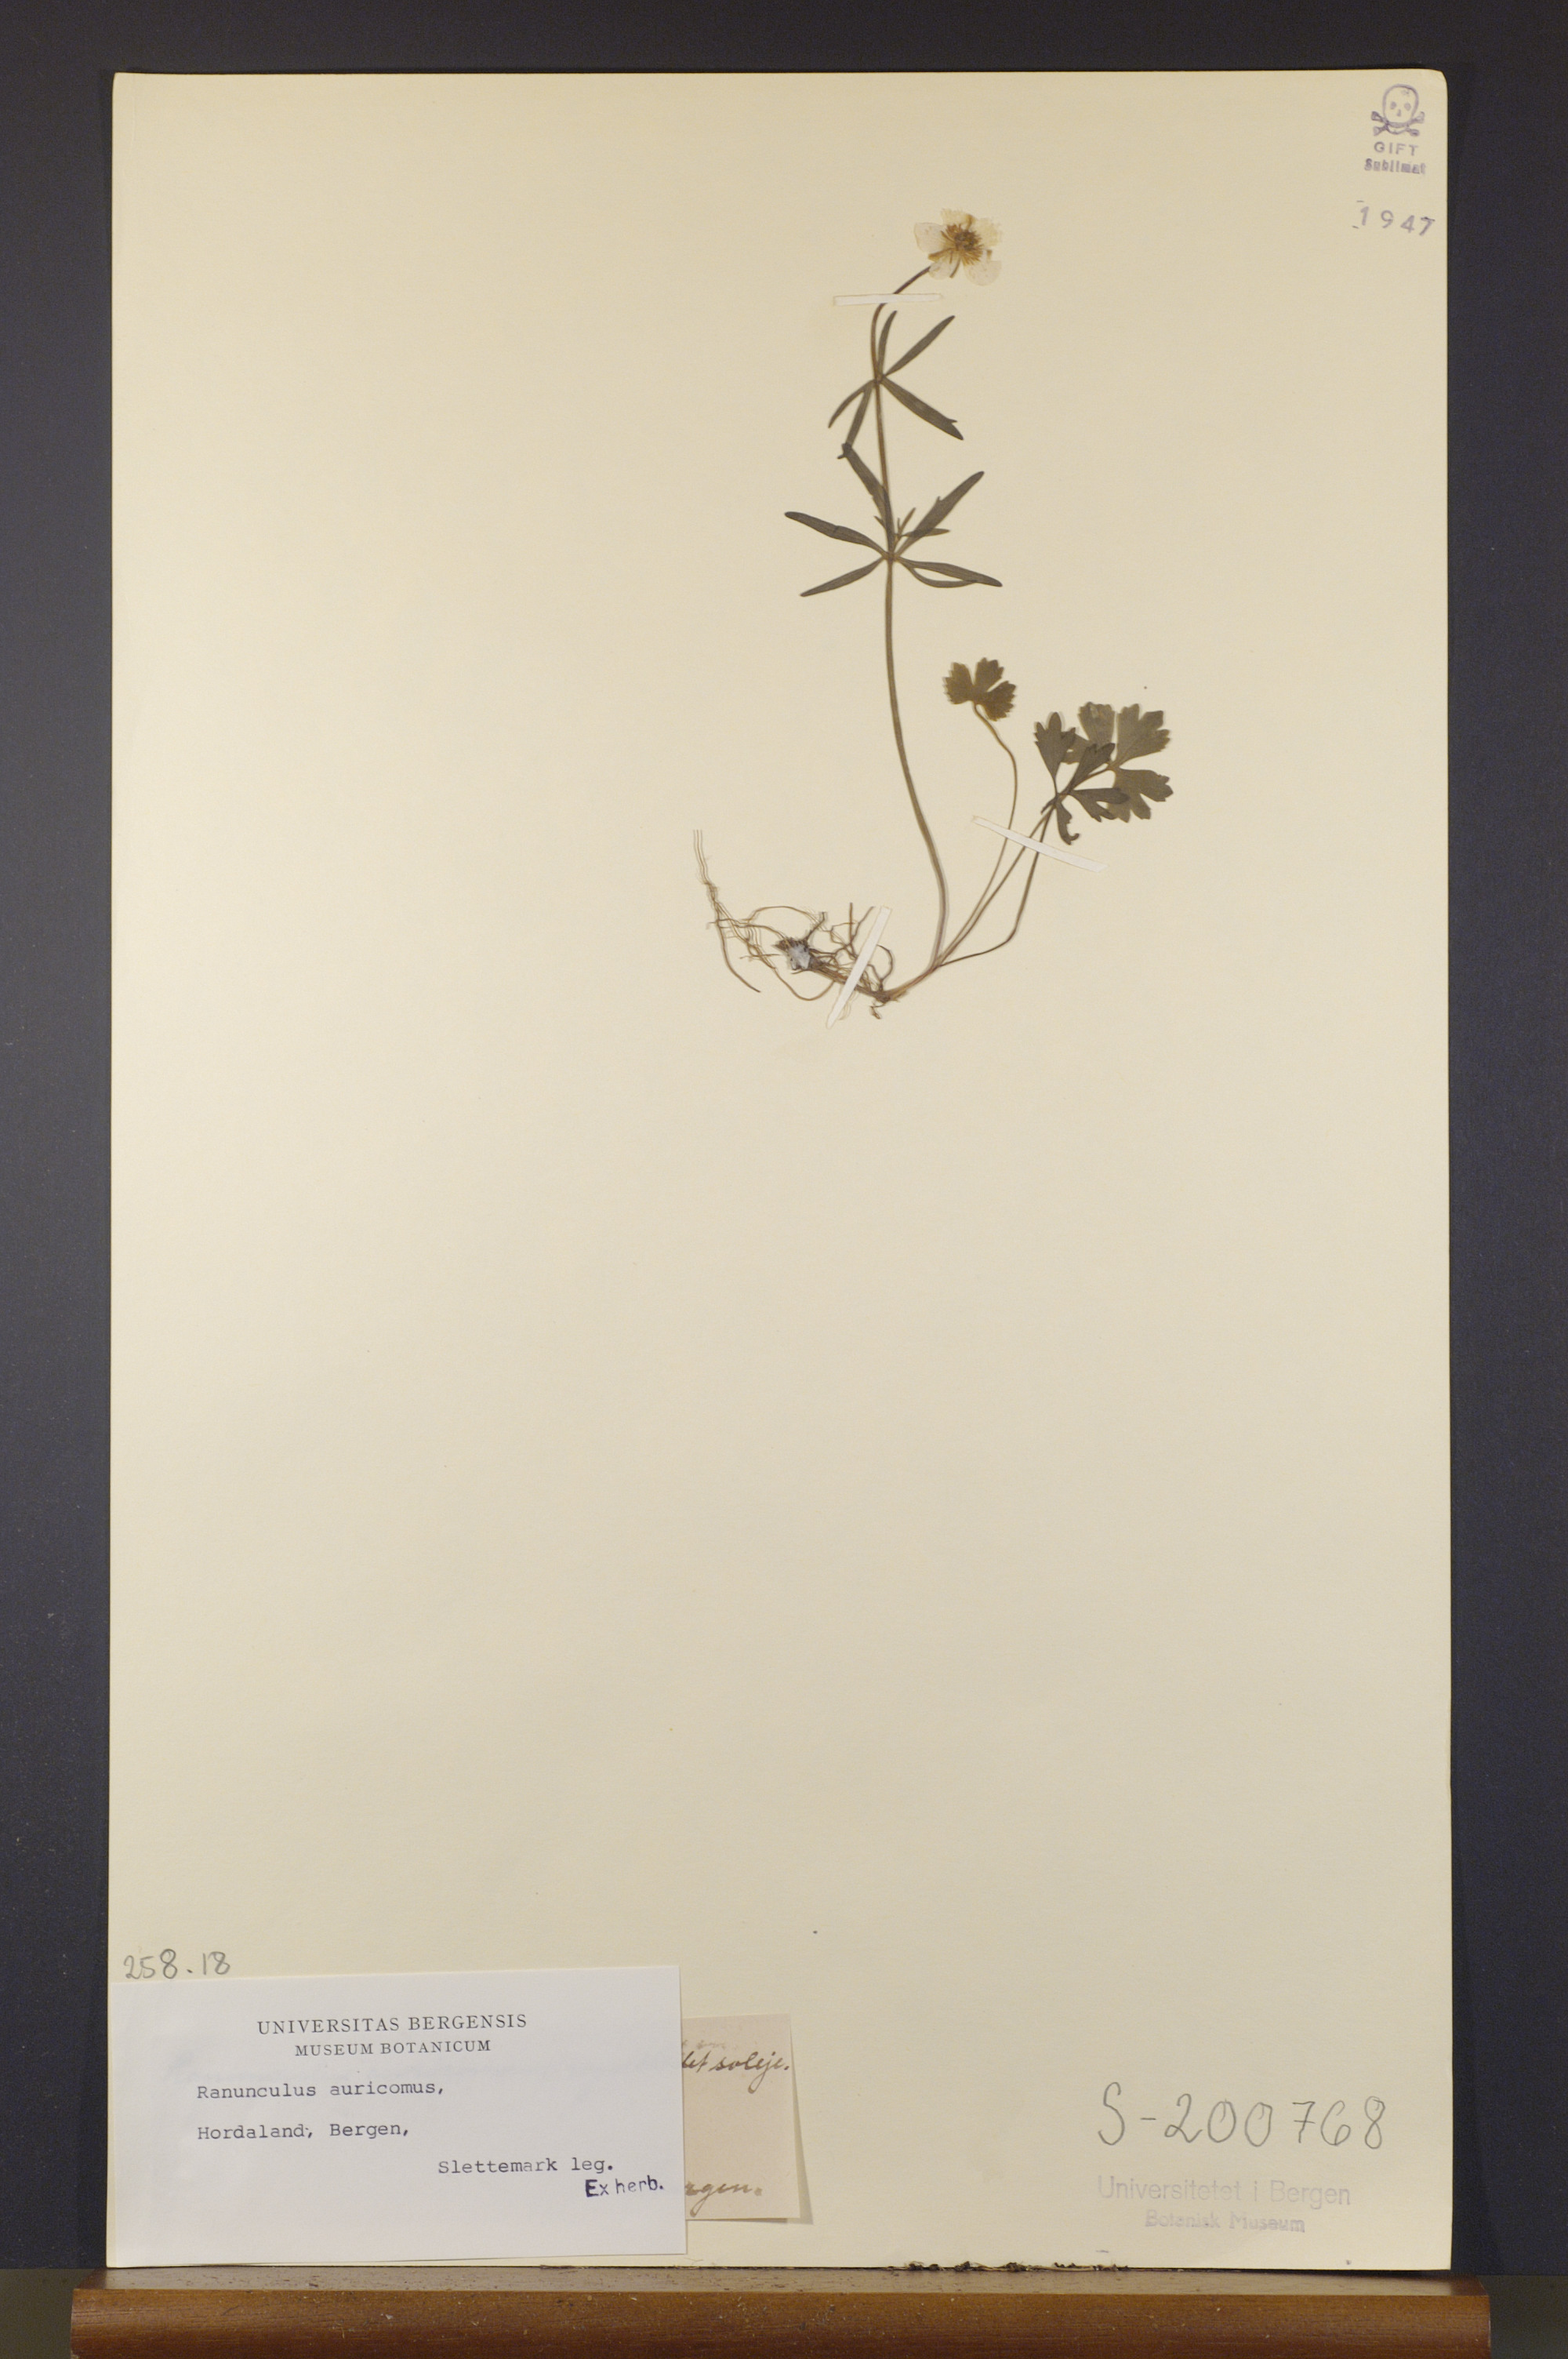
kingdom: Plantae
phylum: Tracheophyta
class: Magnoliopsida
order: Ranunculales
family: Ranunculaceae
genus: Ranunculus
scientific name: Ranunculus auricomus
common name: Goldilocks buttercup
